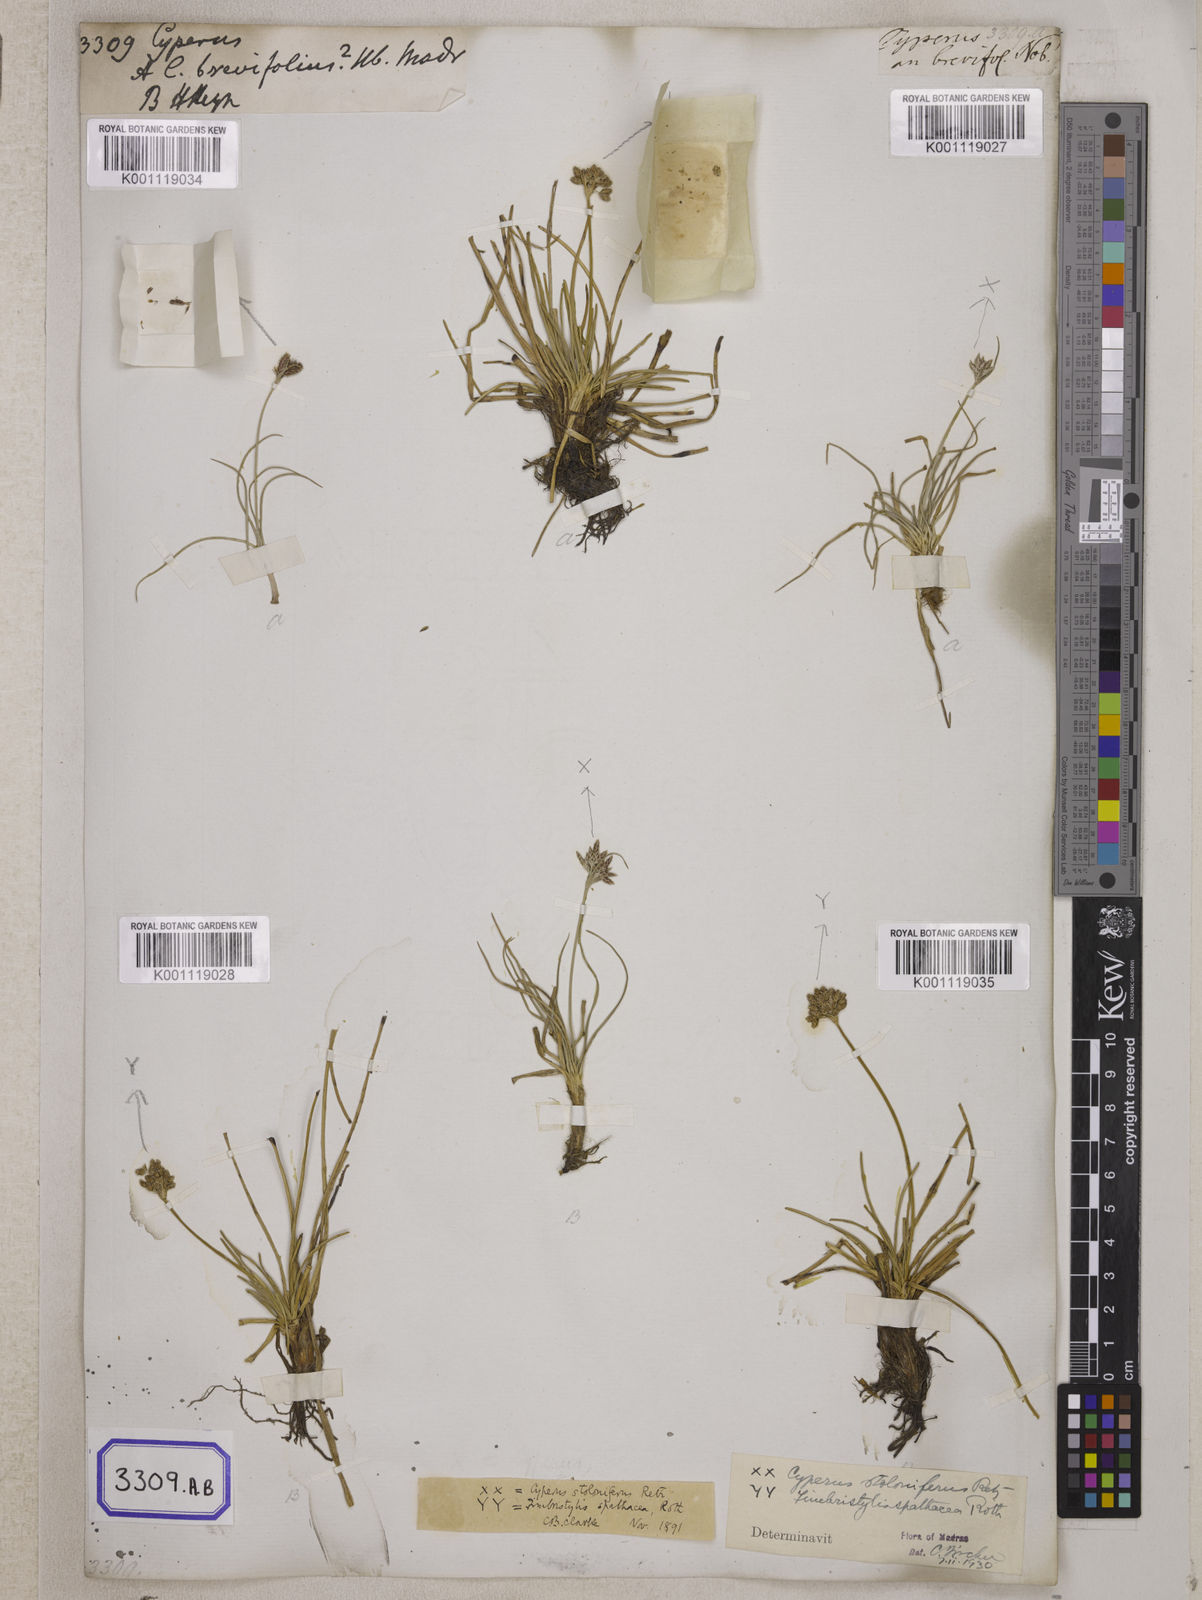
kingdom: Plantae
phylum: Tracheophyta
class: Liliopsida
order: Poales
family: Cyperaceae
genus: Cyperus
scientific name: Cyperus
